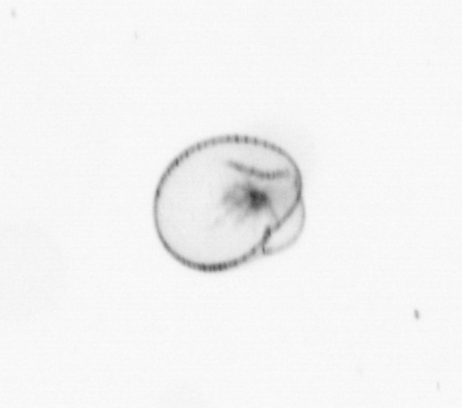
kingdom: Chromista
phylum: Myzozoa
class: Dinophyceae
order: Noctilucales
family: Noctilucaceae
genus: Noctiluca
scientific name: Noctiluca scintillans
